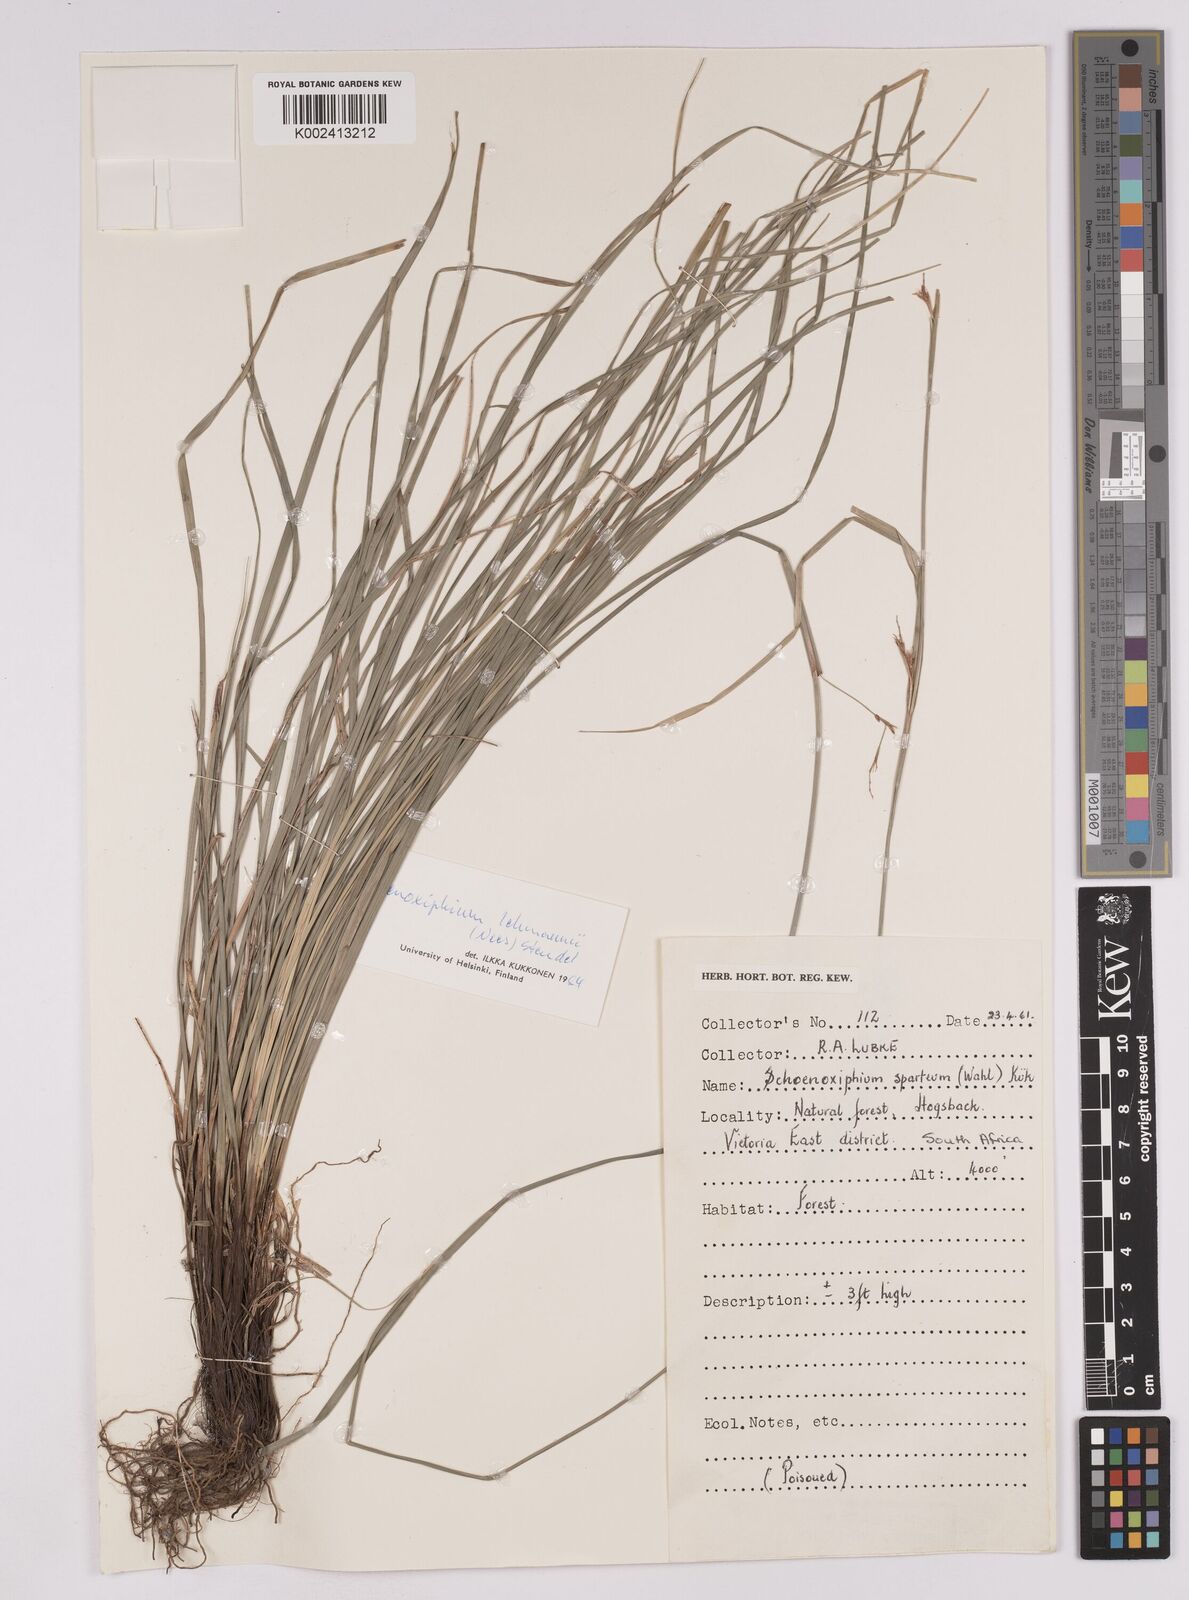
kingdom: Plantae
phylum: Tracheophyta
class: Liliopsida
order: Poales
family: Cyperaceae
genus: Carex
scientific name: Carex uhligii
